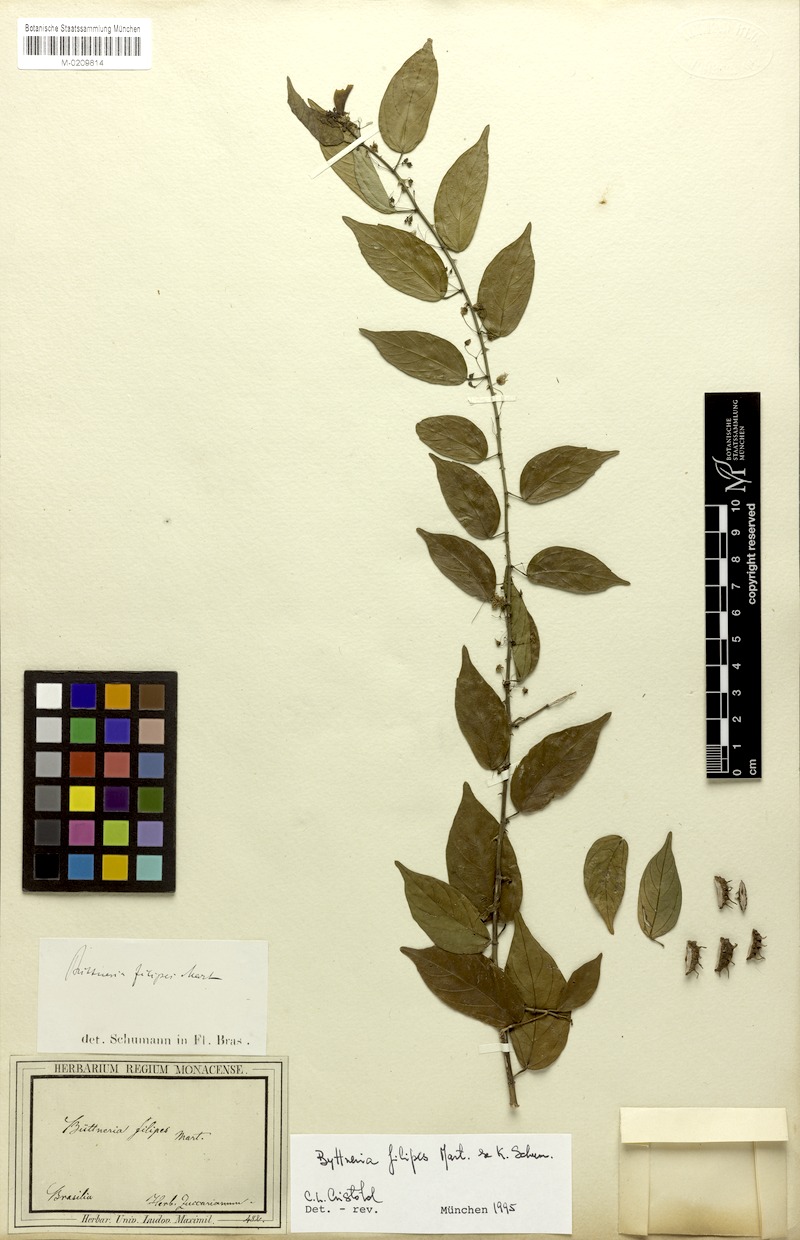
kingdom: Plantae
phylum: Tracheophyta
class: Magnoliopsida
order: Malvales
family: Malvaceae
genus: Byttneria
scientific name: Byttneria filipes
